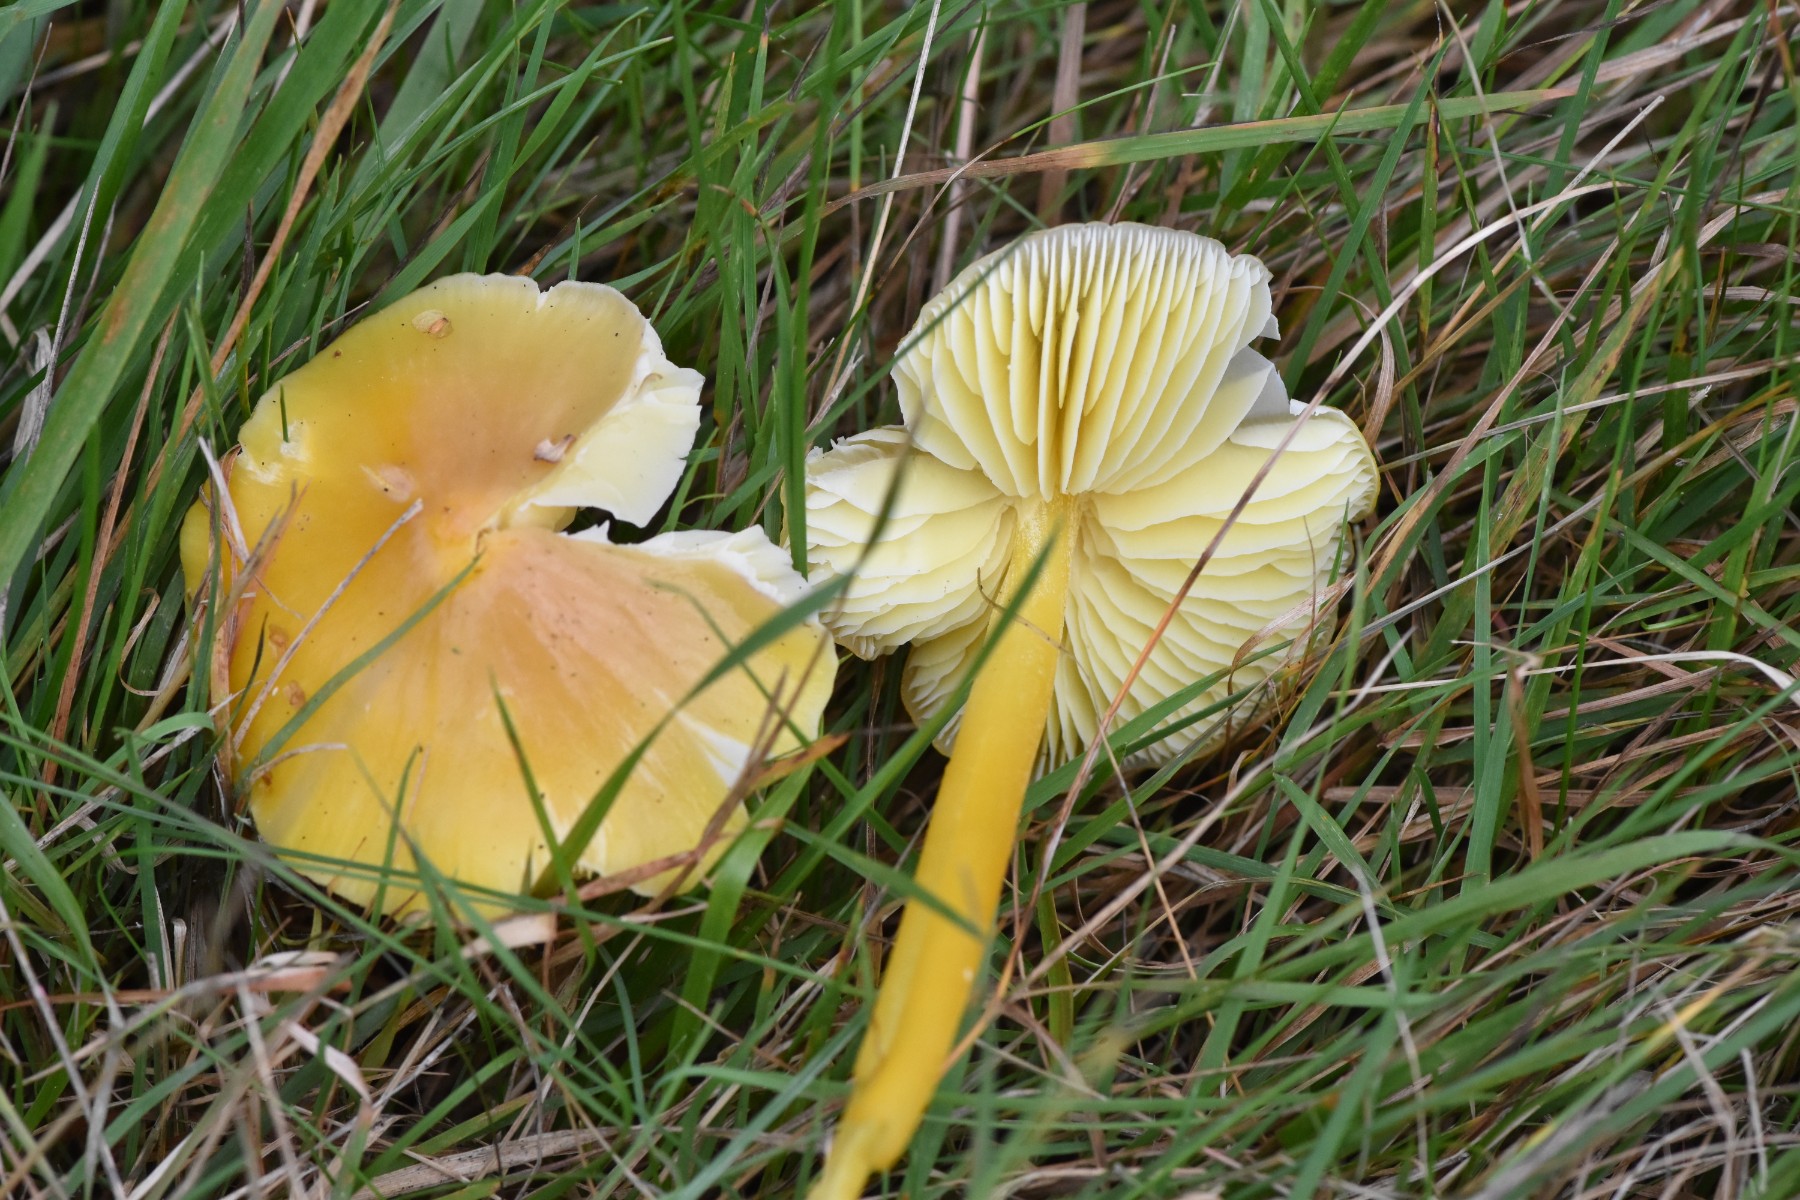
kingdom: Fungi
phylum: Basidiomycota
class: Agaricomycetes
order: Agaricales
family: Hygrophoraceae
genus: Hygrocybe
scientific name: Hygrocybe chlorophana
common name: gul vokshat
